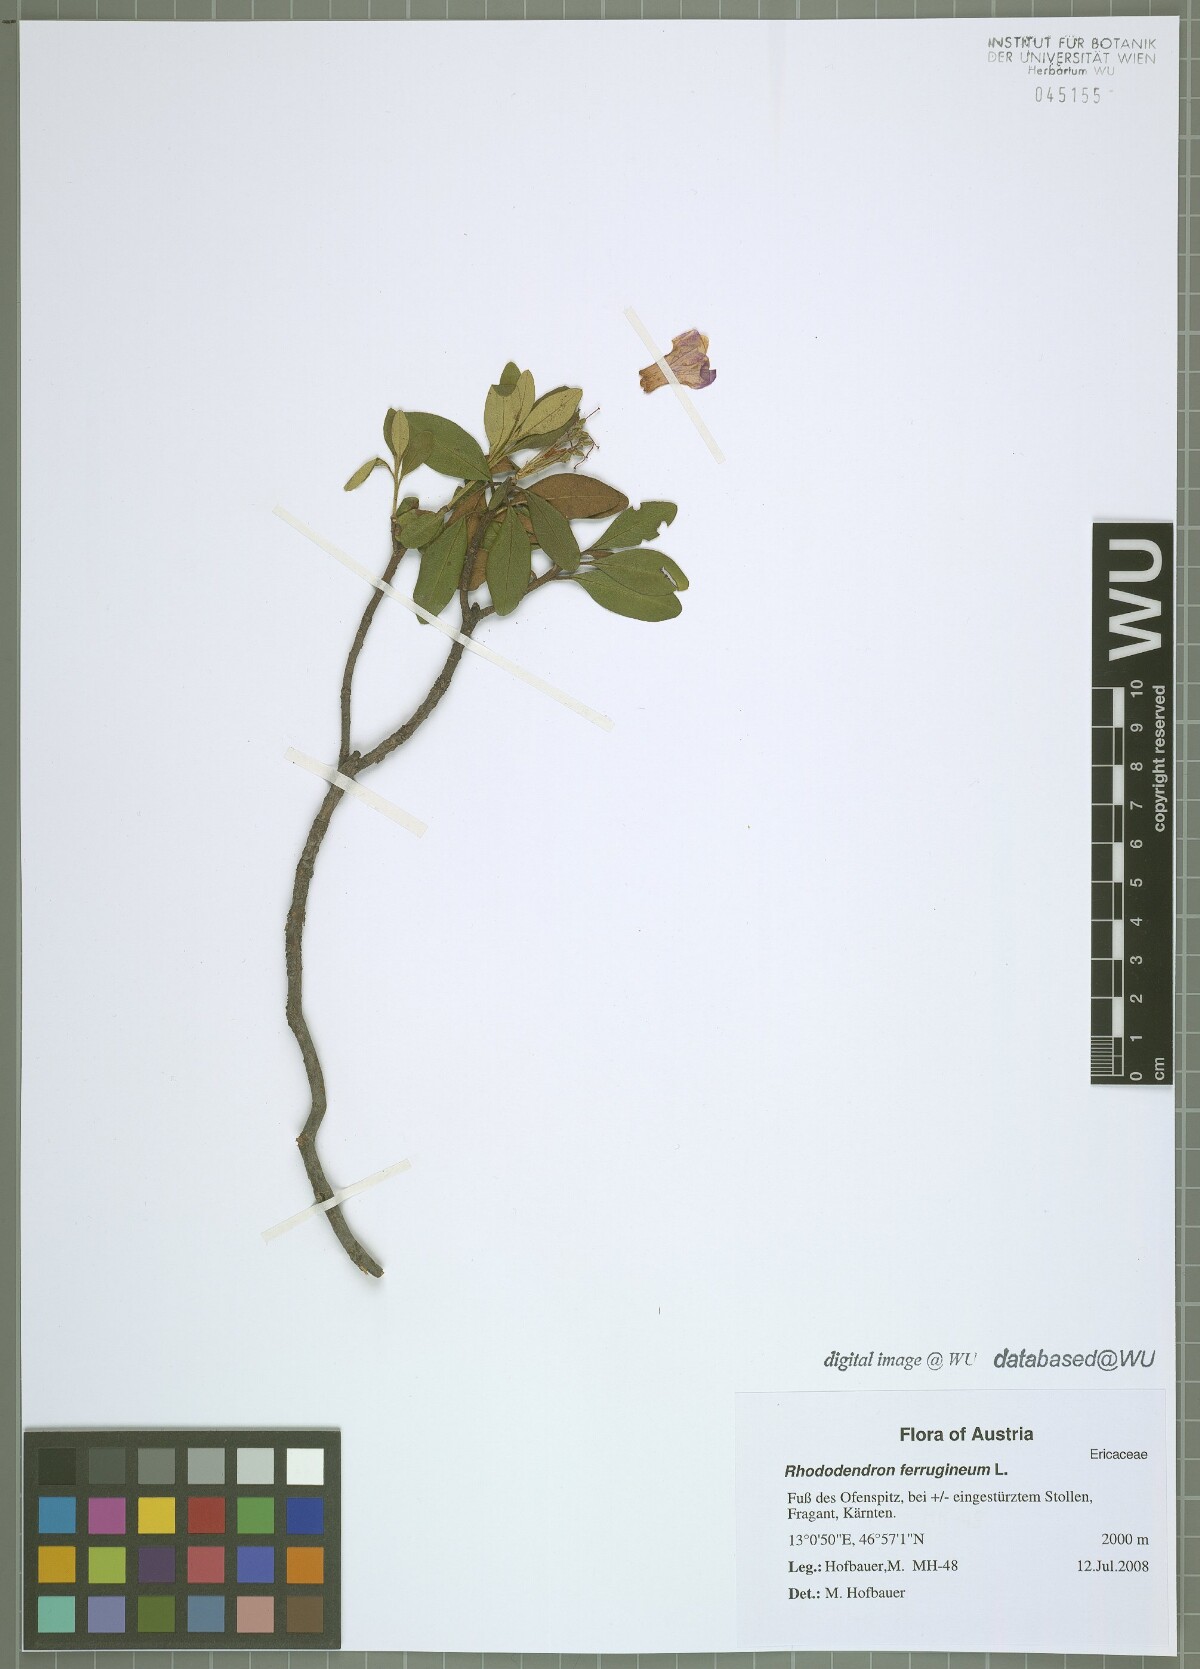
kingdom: Plantae
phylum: Tracheophyta
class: Magnoliopsida
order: Ericales
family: Ericaceae
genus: Rhododendron
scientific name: Rhododendron ferrugineum
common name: Alpenrose
